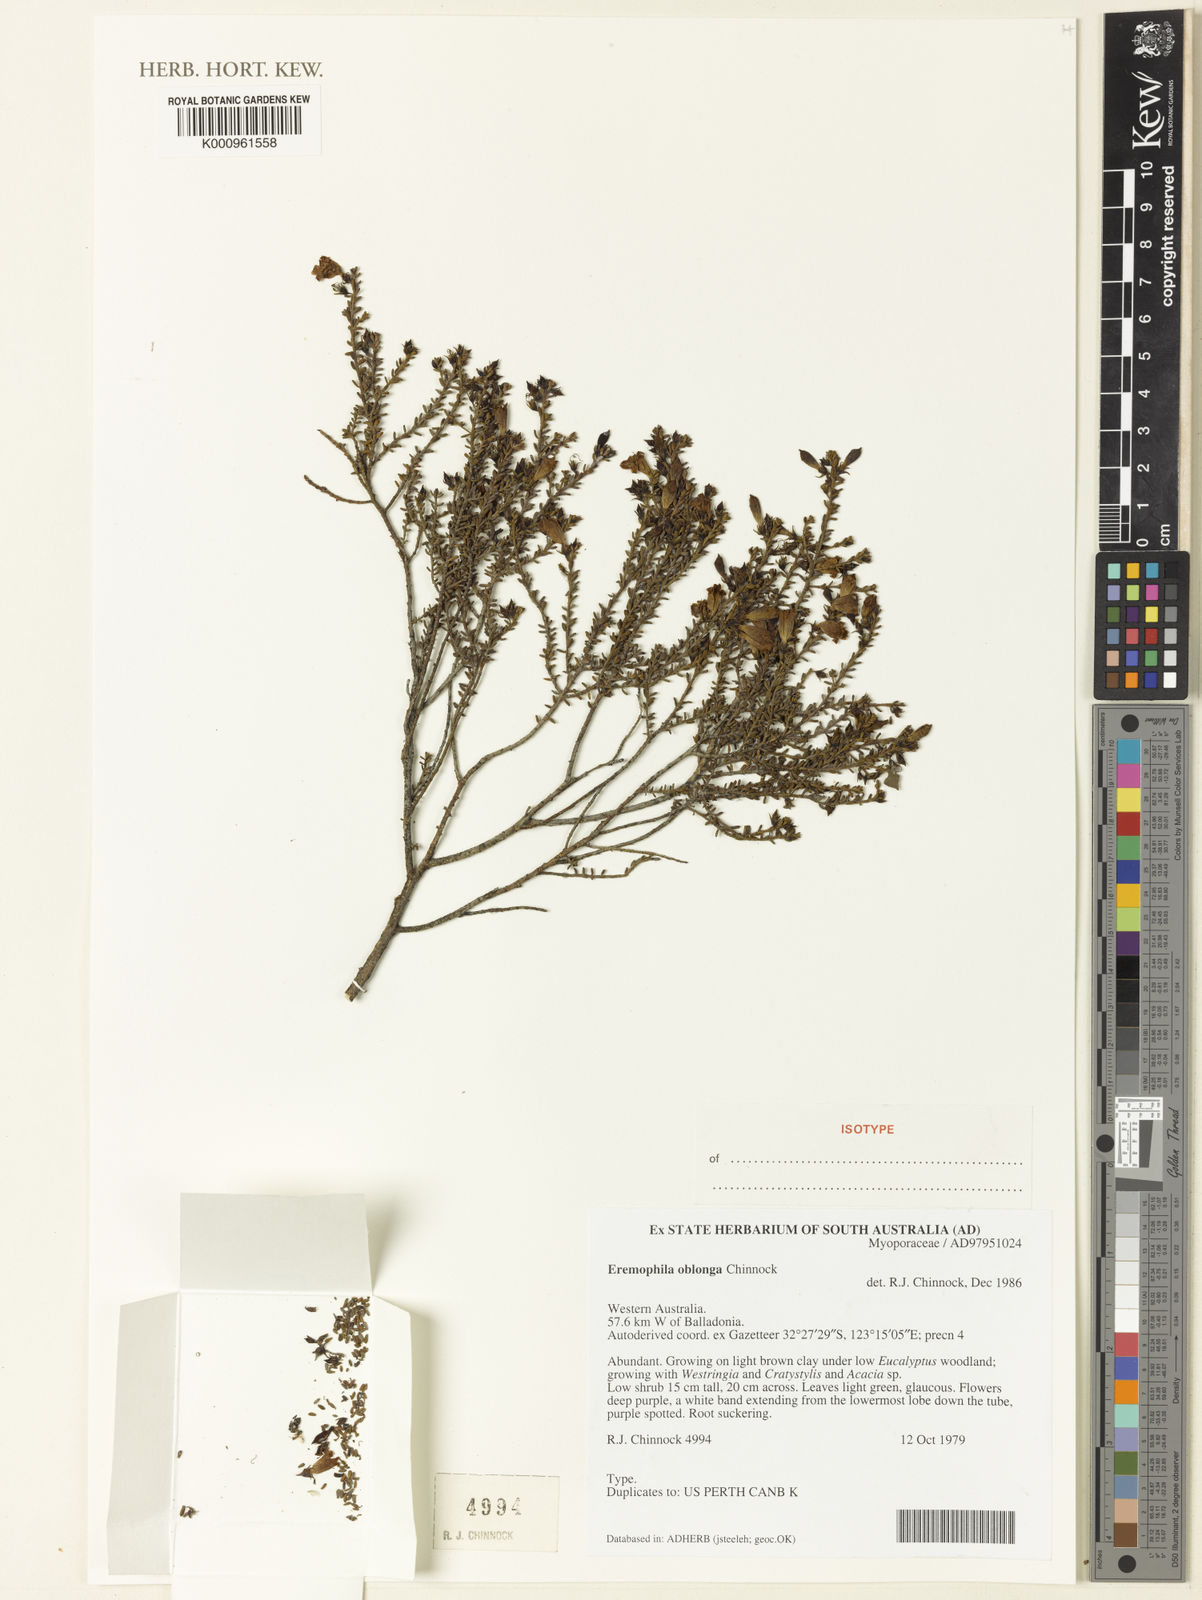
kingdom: Plantae
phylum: Tracheophyta
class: Magnoliopsida
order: Lamiales
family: Scrophulariaceae
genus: Eremophila
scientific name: Eremophila oblonga
